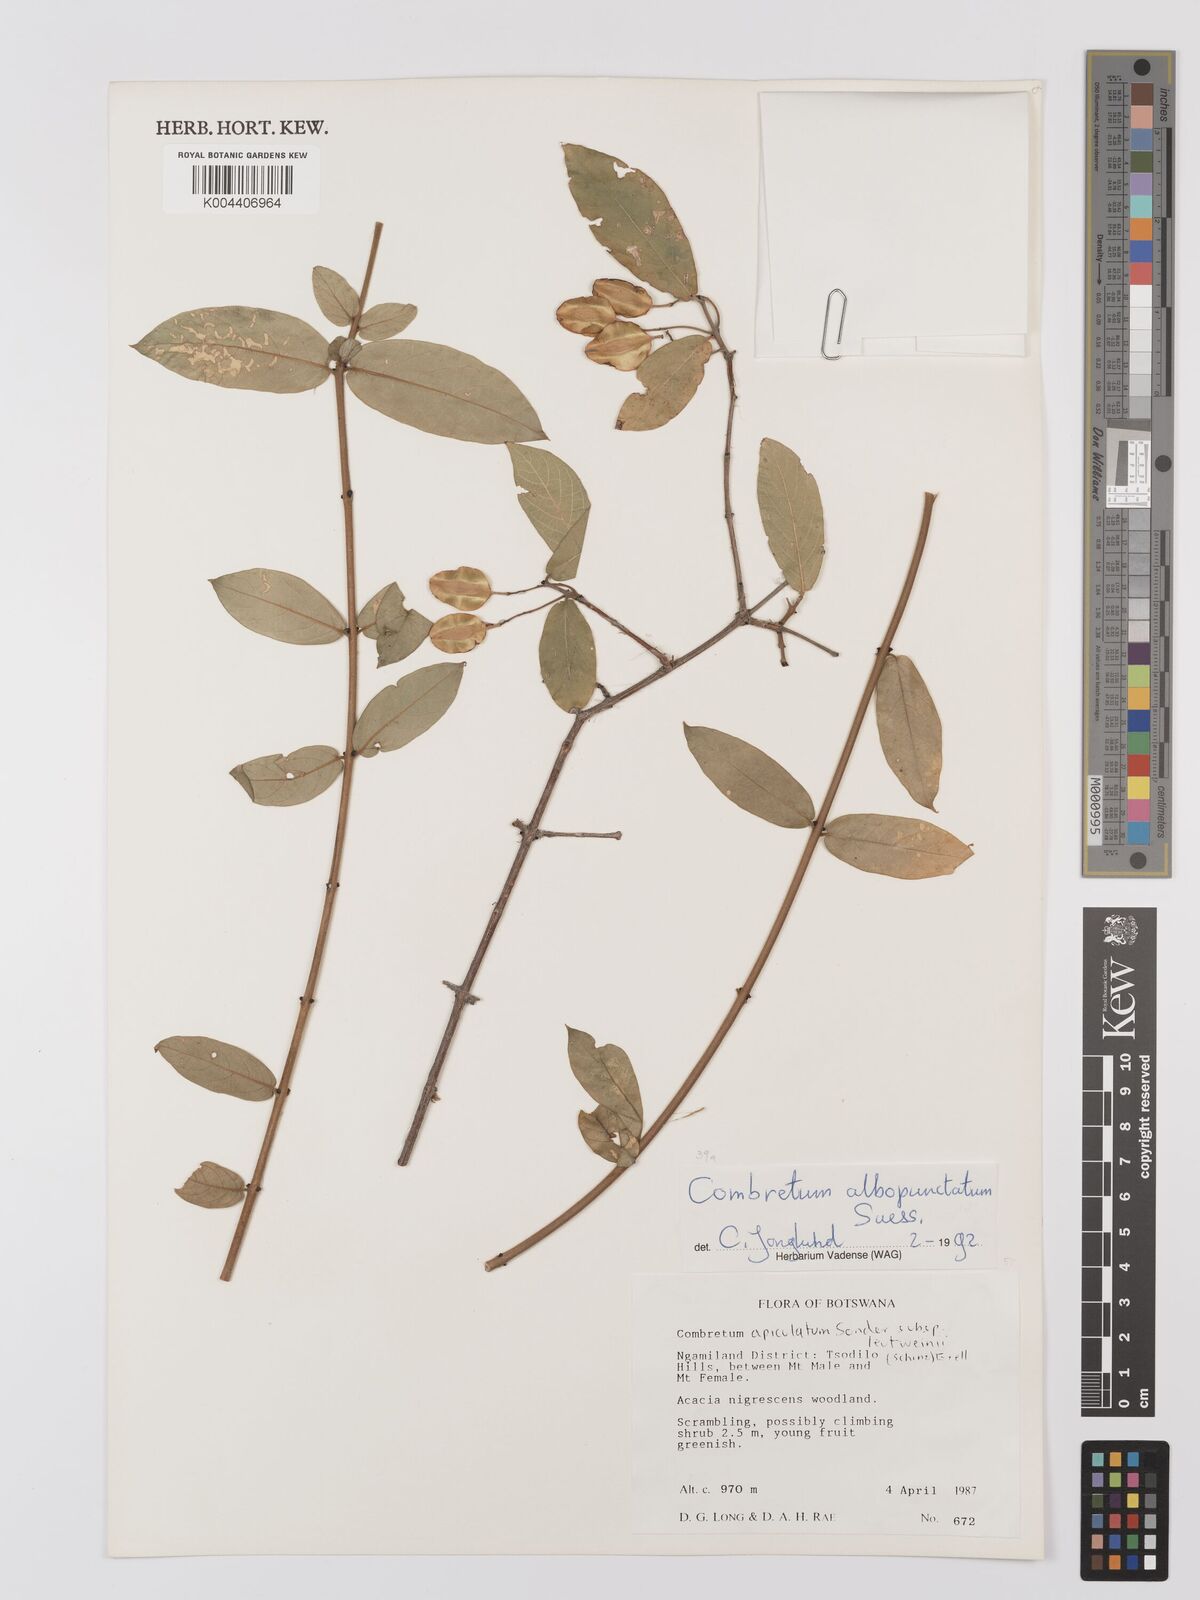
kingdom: Plantae
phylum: Tracheophyta
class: Magnoliopsida
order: Myrtales
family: Combretaceae
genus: Combretum
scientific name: Combretum albopunctatum
